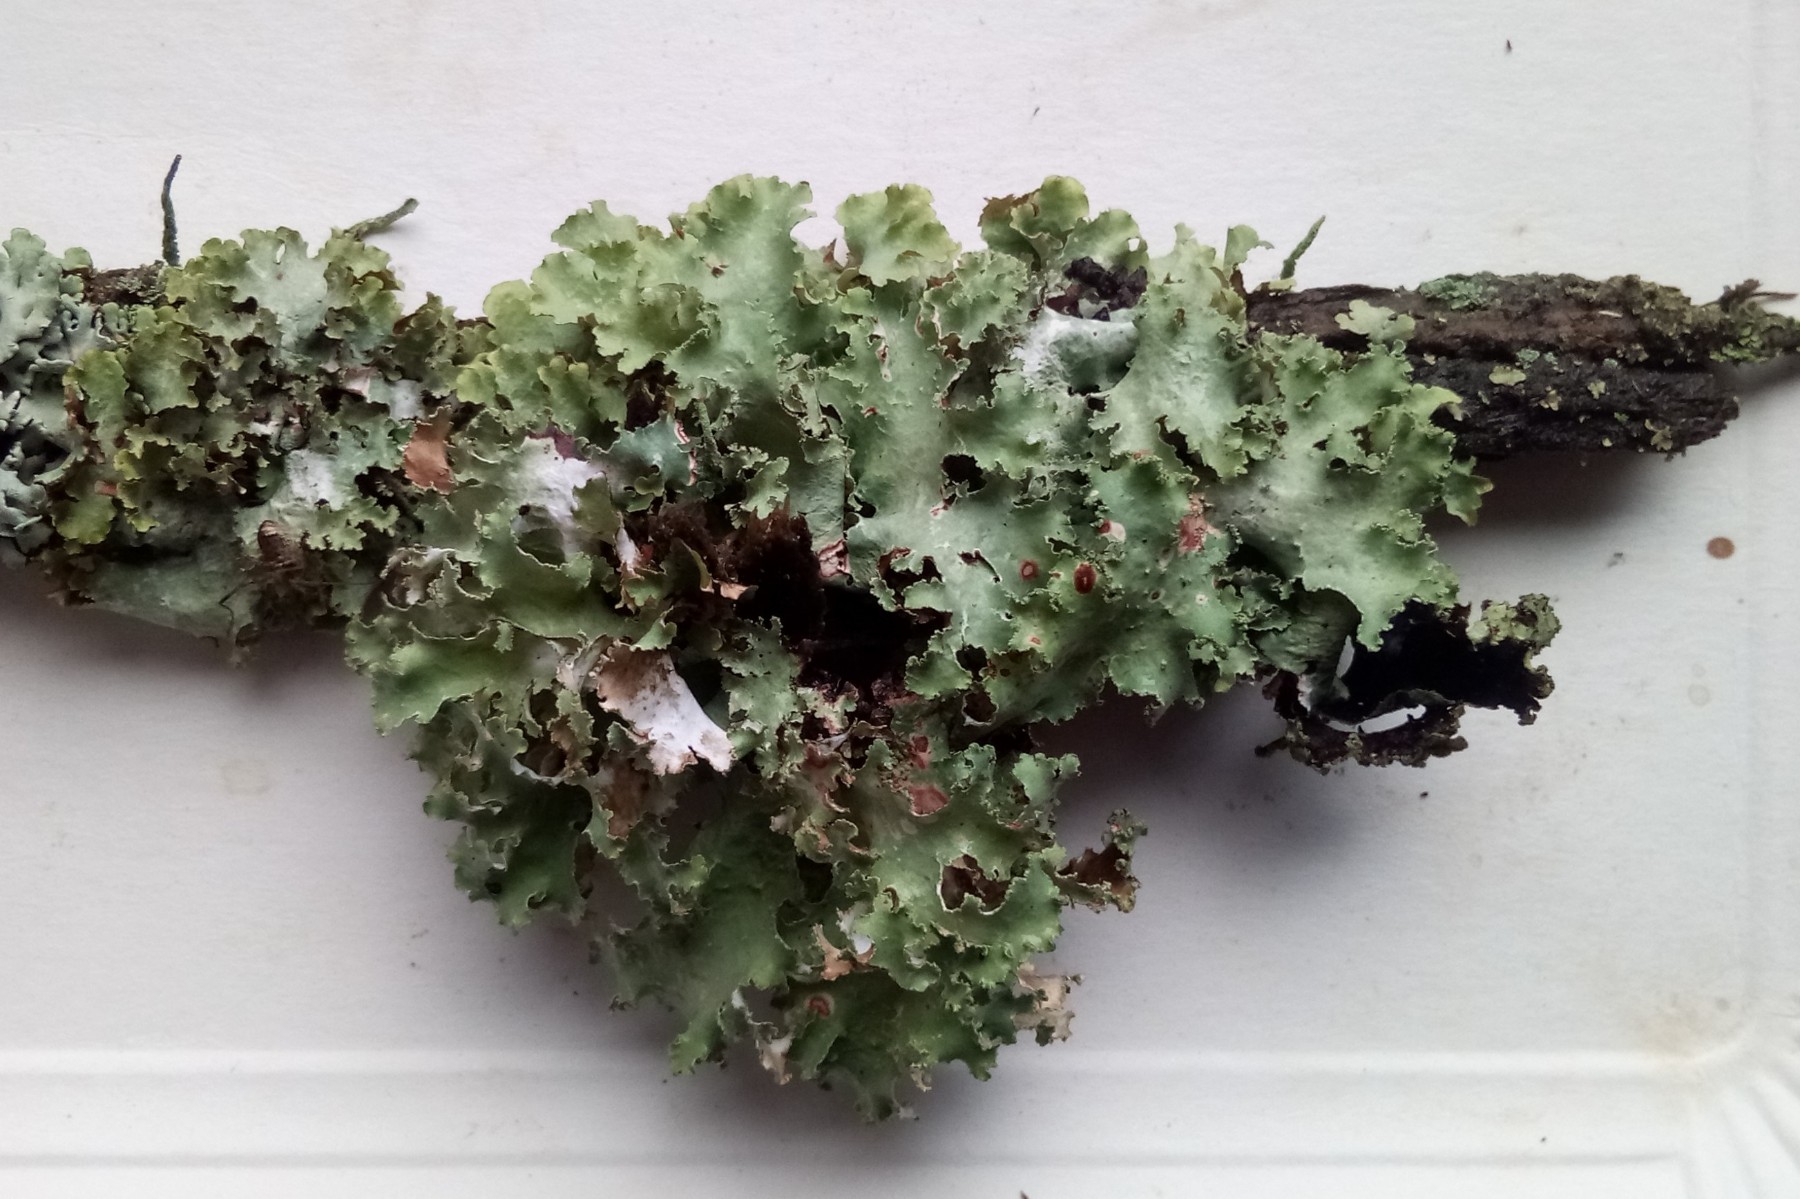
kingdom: Fungi
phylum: Ascomycota
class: Lecanoromycetes
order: Lecanorales
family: Parmeliaceae
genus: Platismatia
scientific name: Platismatia glauca
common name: blågrå papirlav
